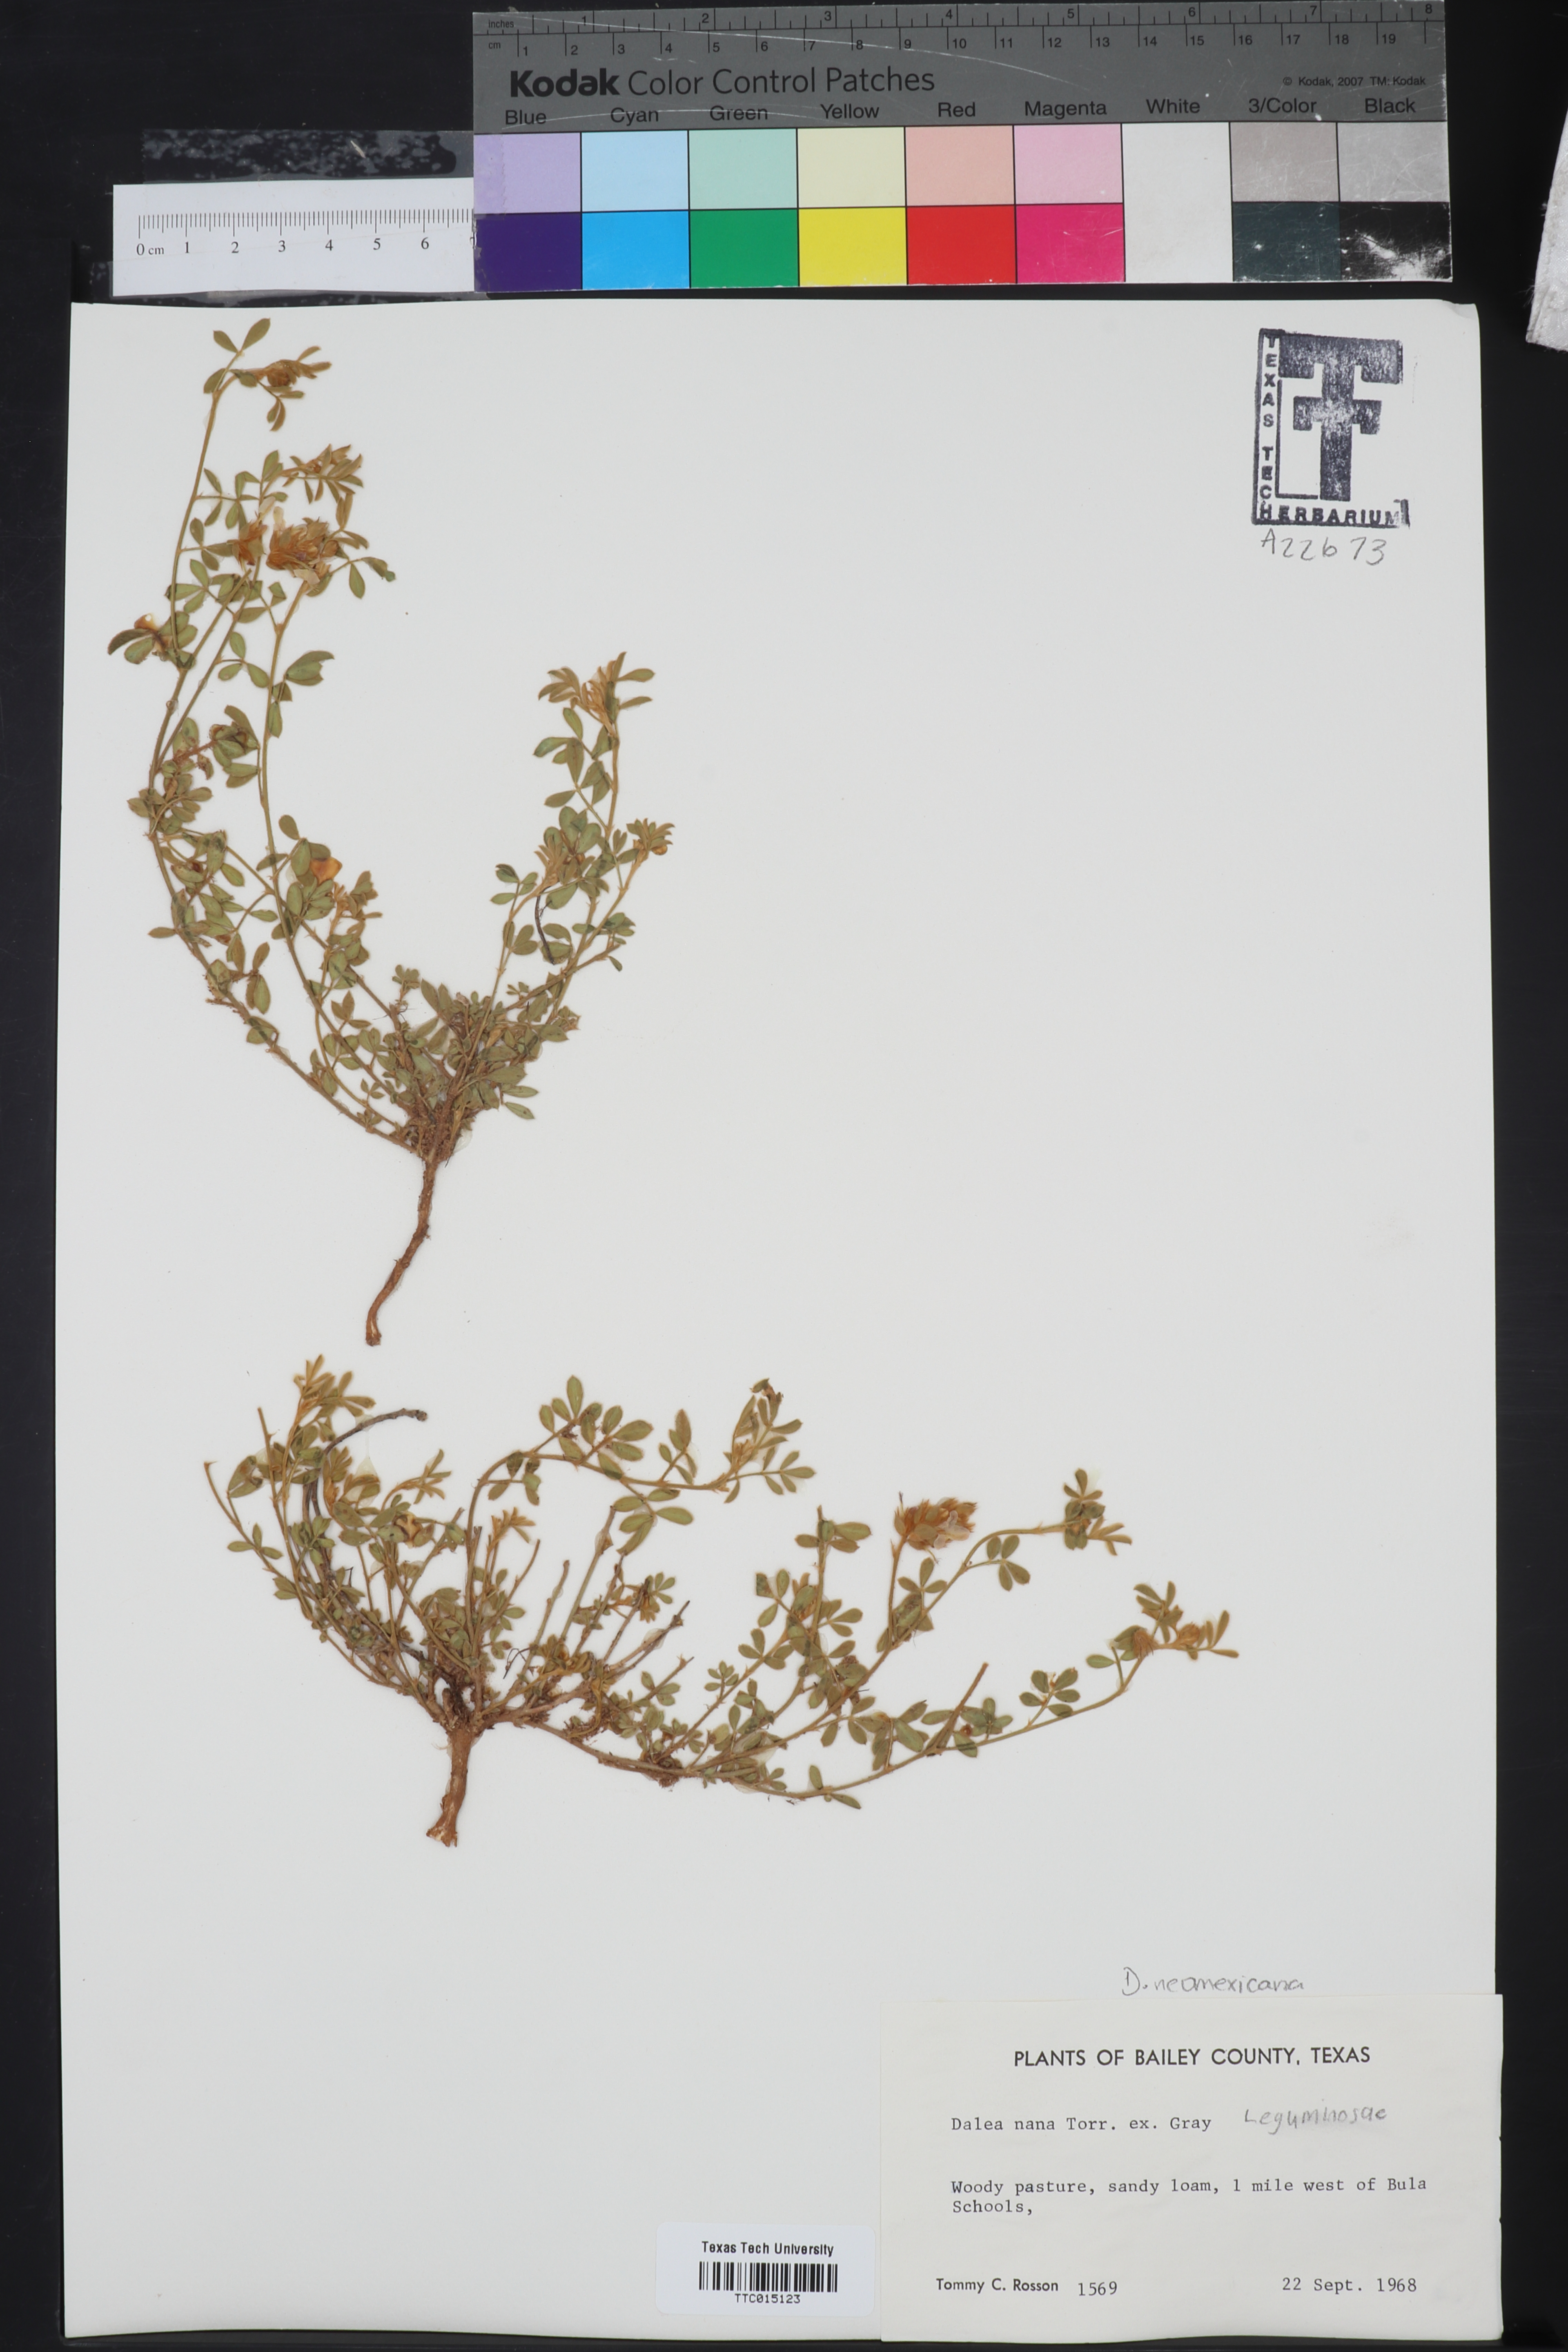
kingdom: Plantae
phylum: Tracheophyta
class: Magnoliopsida
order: Fabales
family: Fabaceae
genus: Dalea
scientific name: Dalea nana
